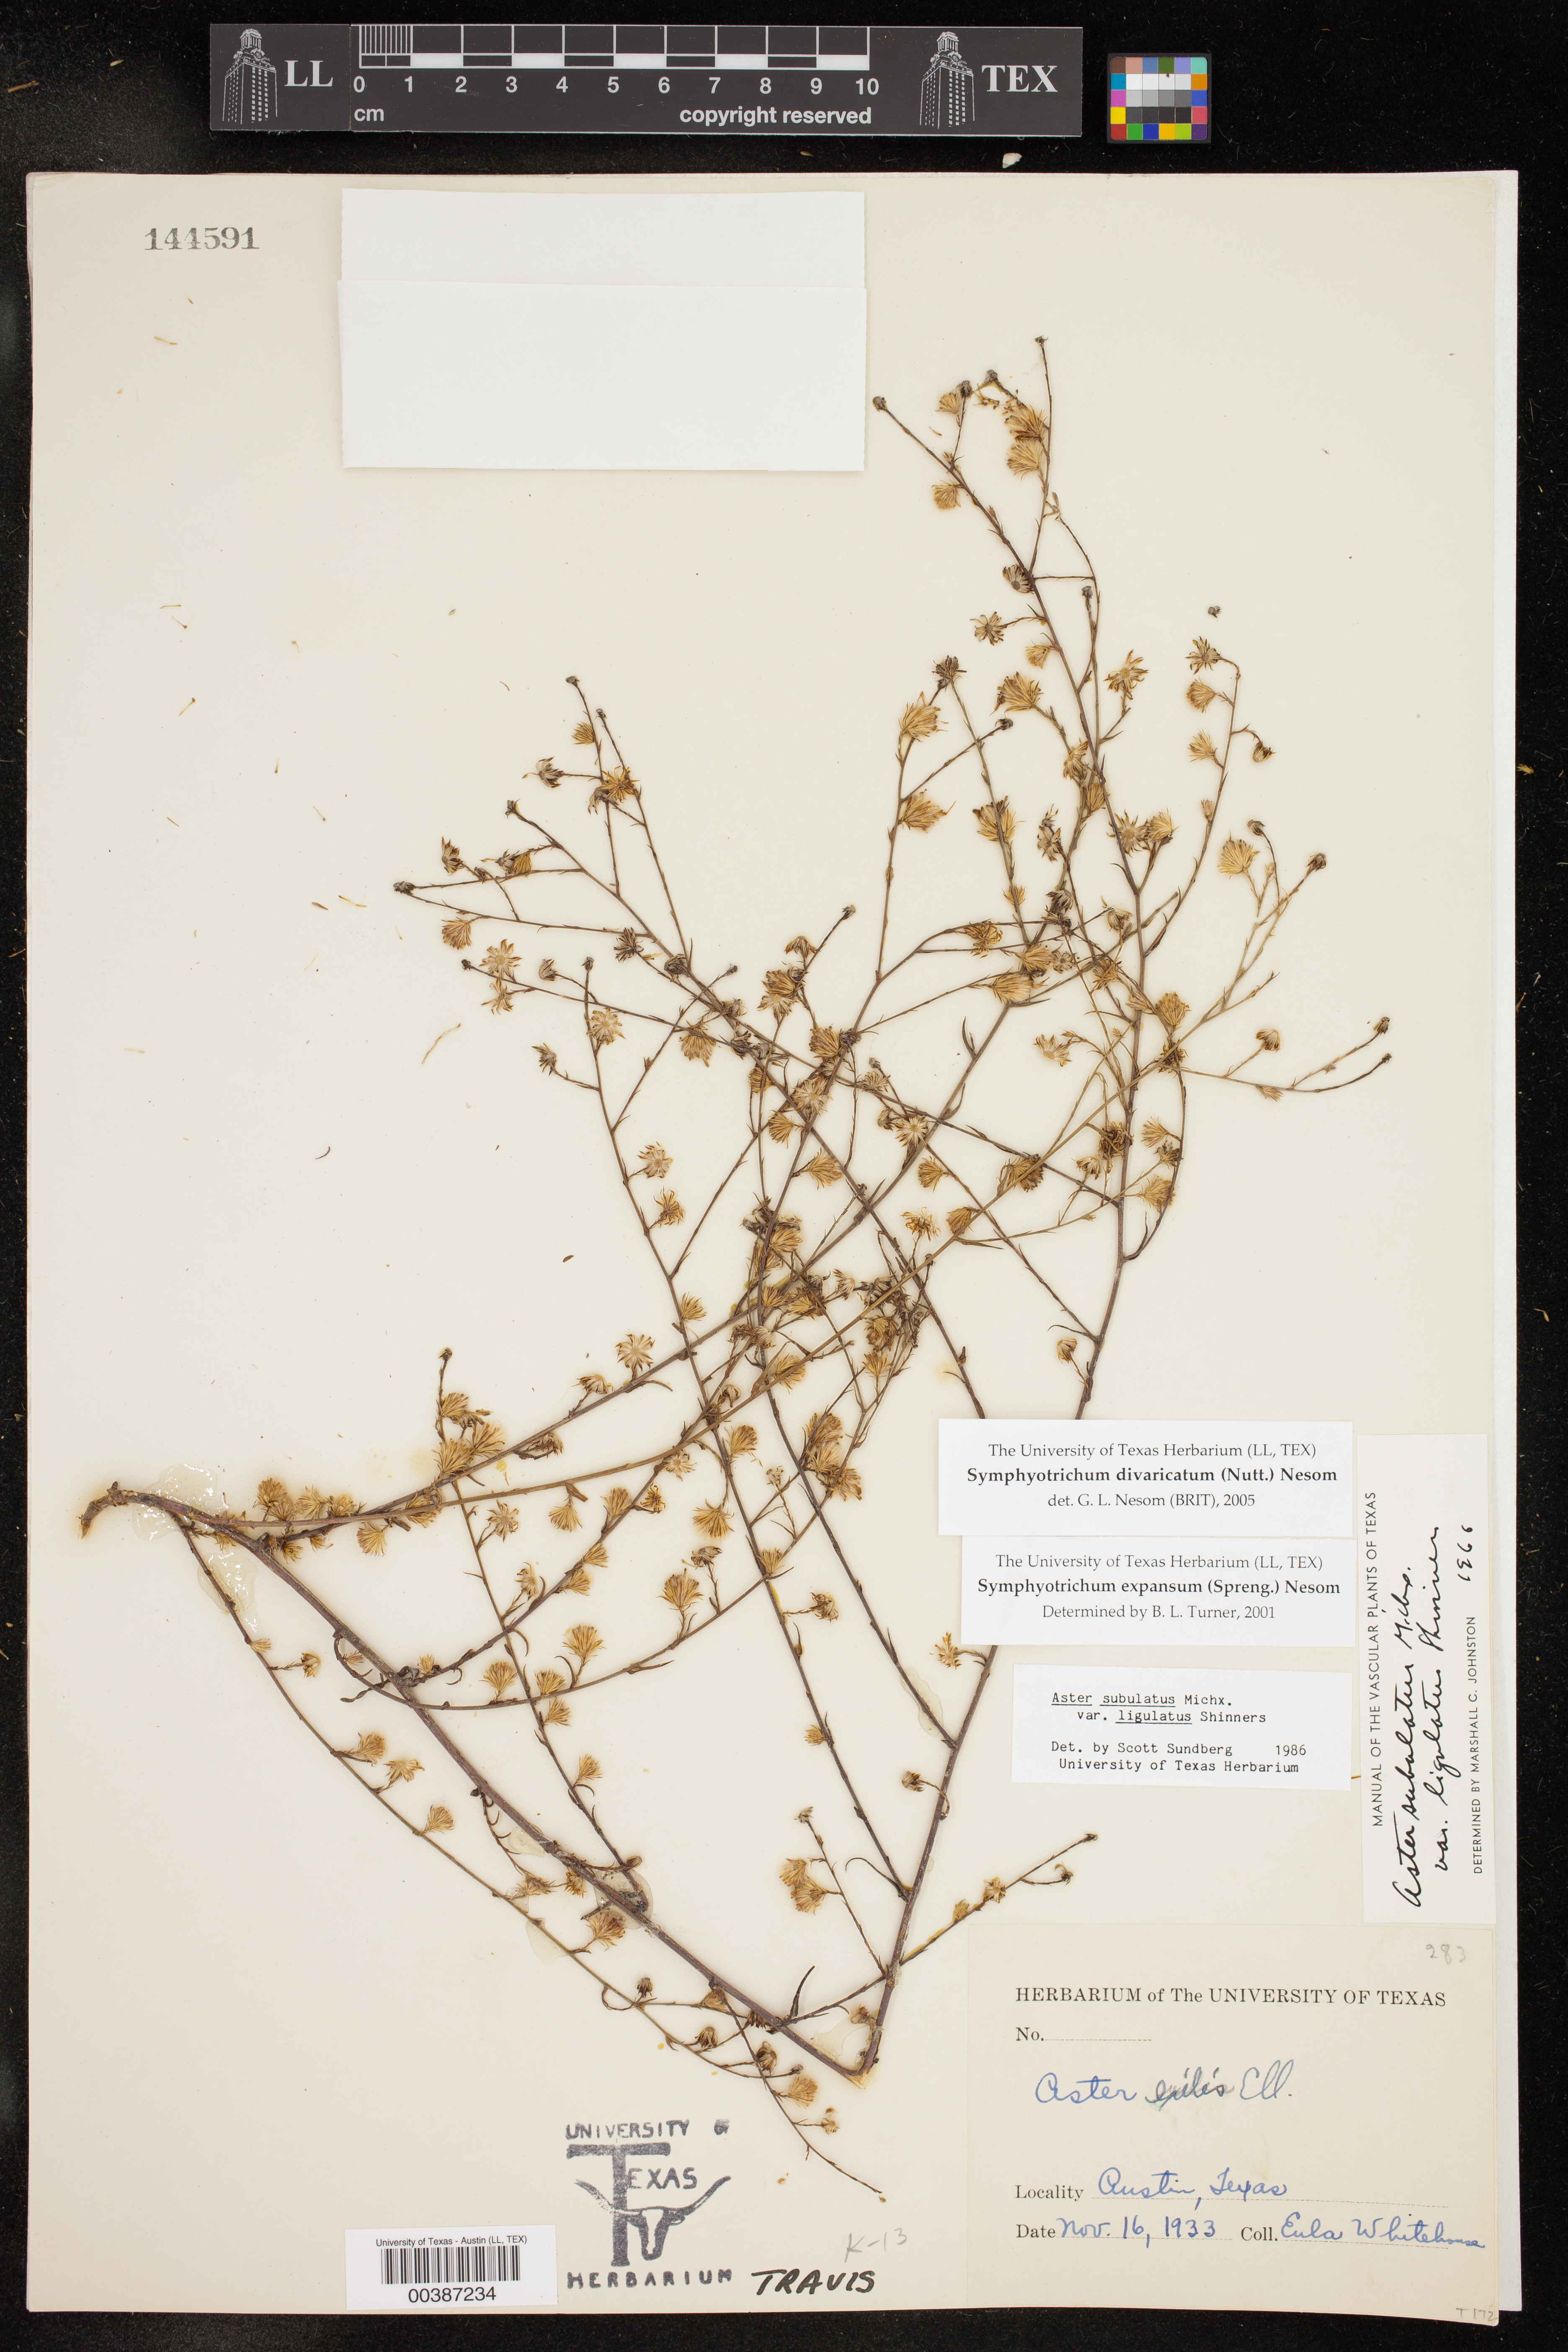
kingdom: Plantae
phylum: Tracheophyta
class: Magnoliopsida
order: Asterales
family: Asteraceae
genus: Symphyotrichum
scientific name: Symphyotrichum divaricatum
